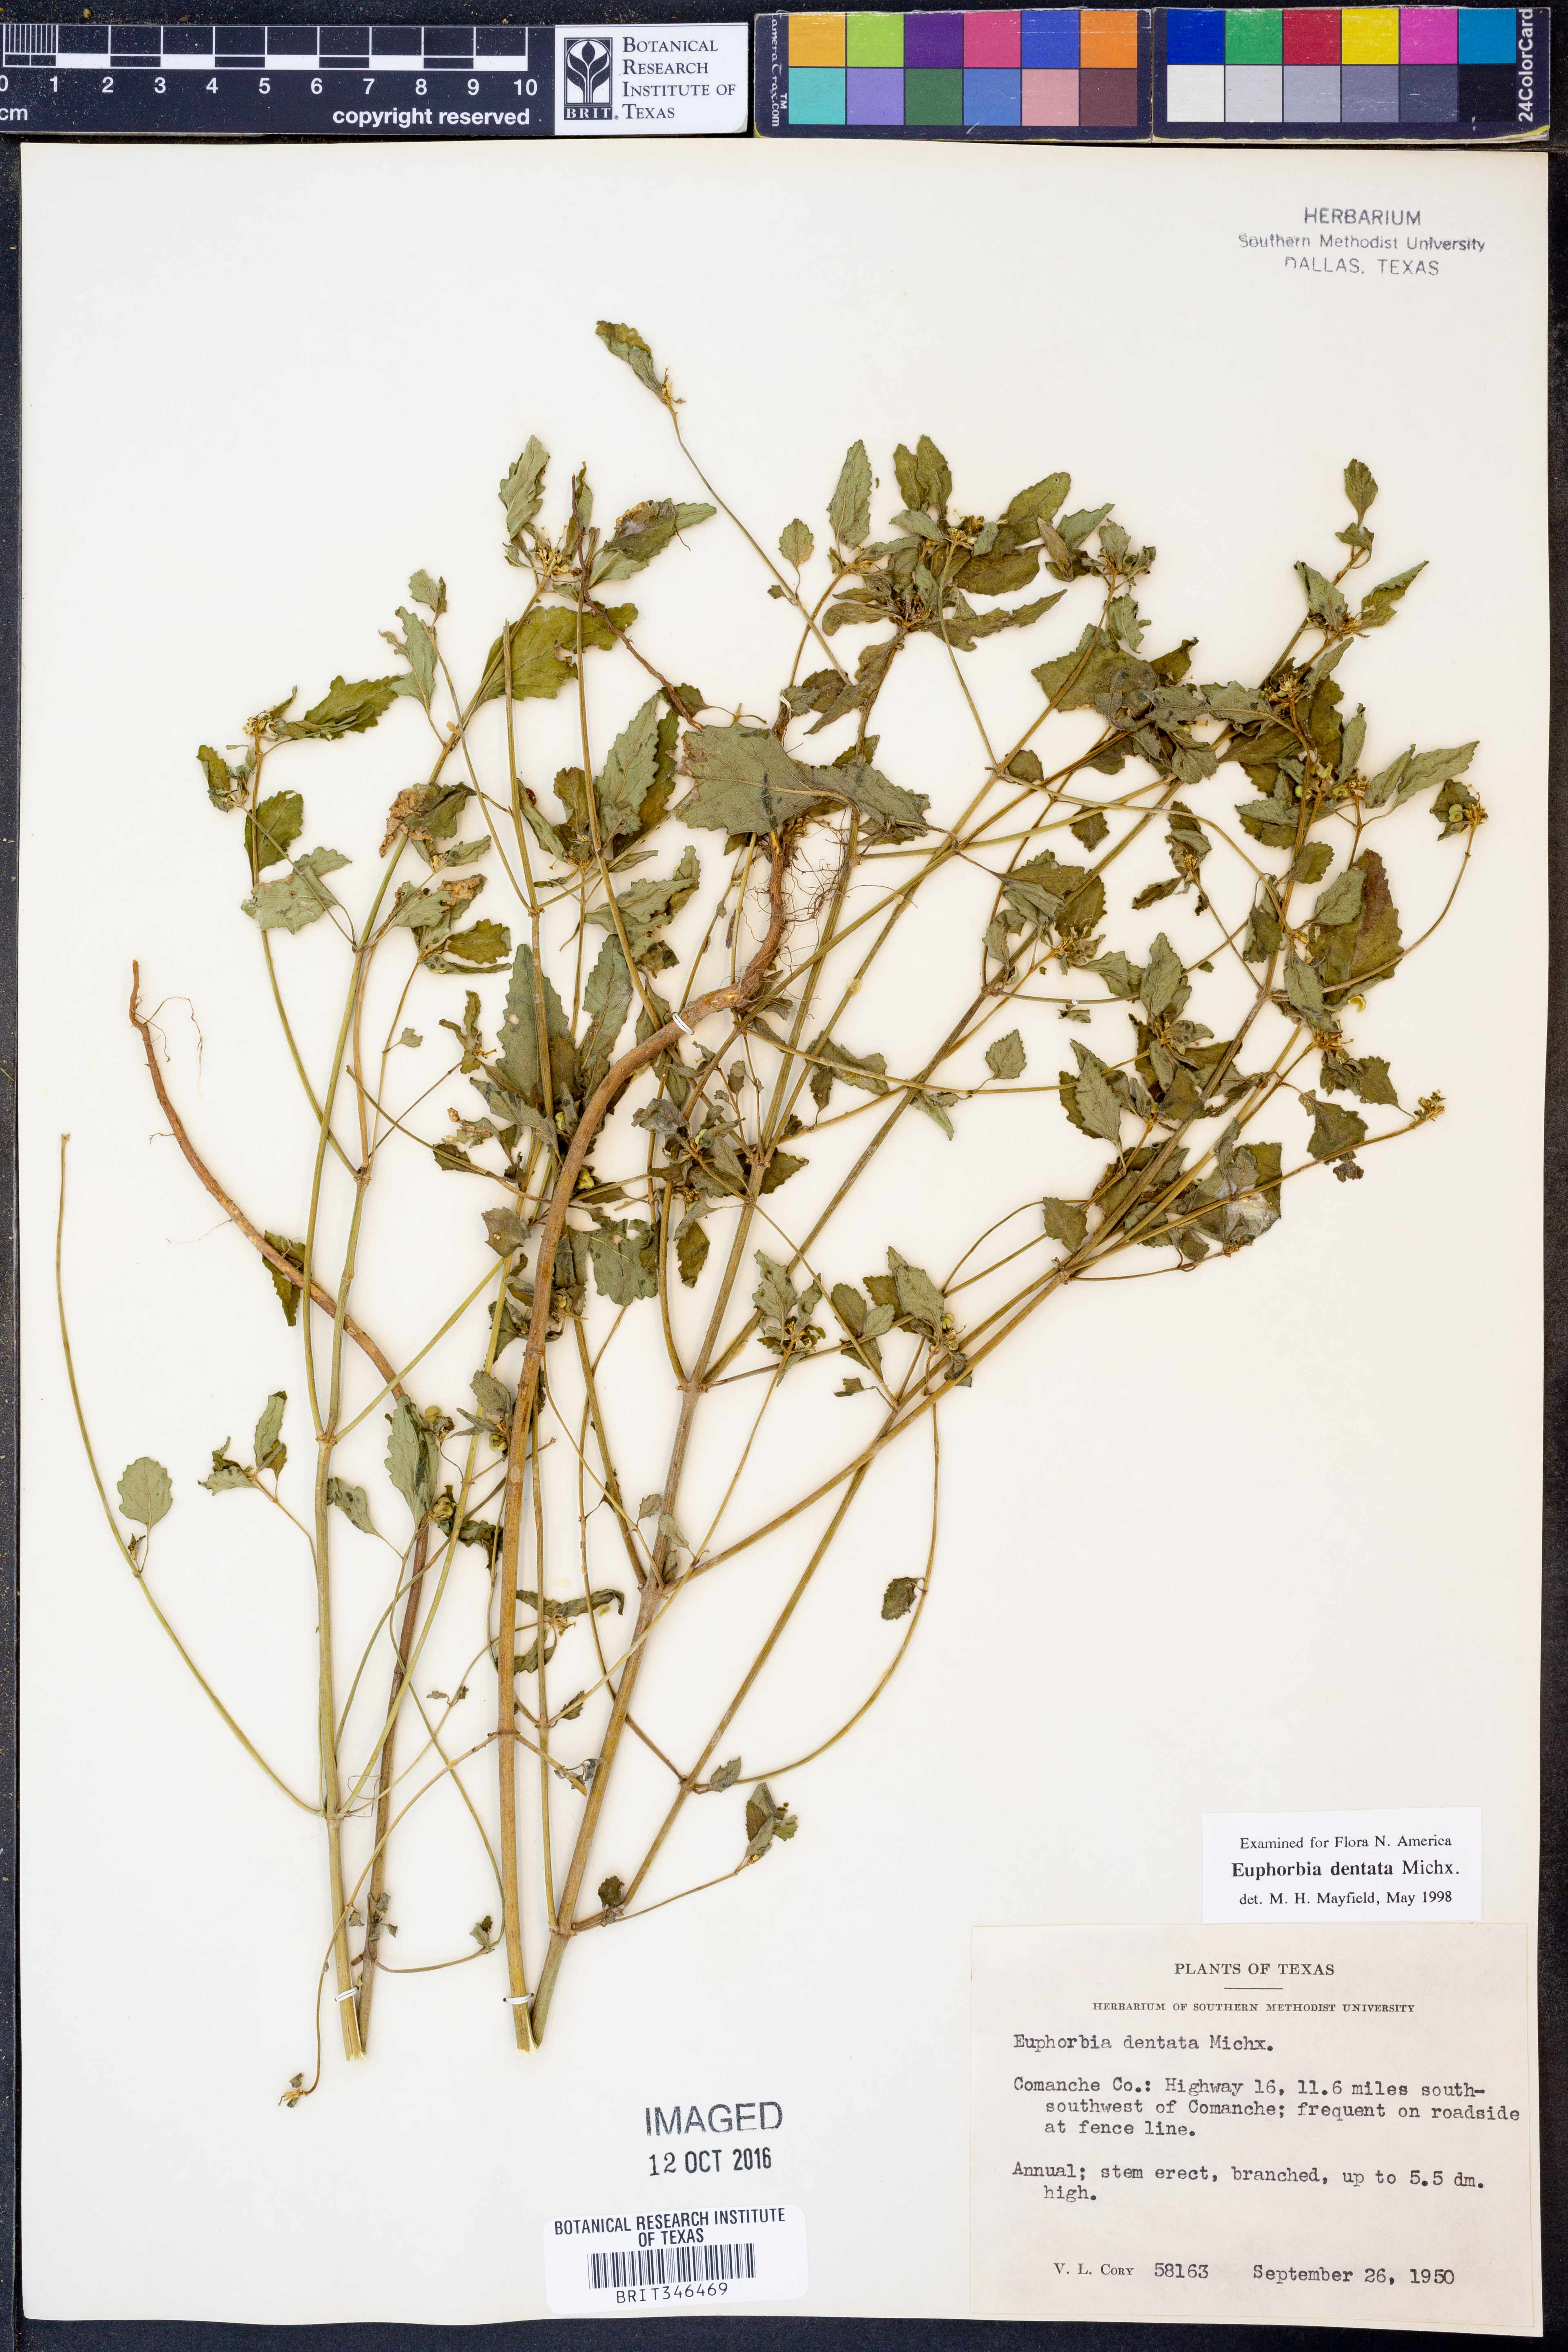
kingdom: Plantae
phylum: Tracheophyta
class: Magnoliopsida
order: Malpighiales
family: Euphorbiaceae
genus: Euphorbia
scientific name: Euphorbia dentata
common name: Dentate spurge
